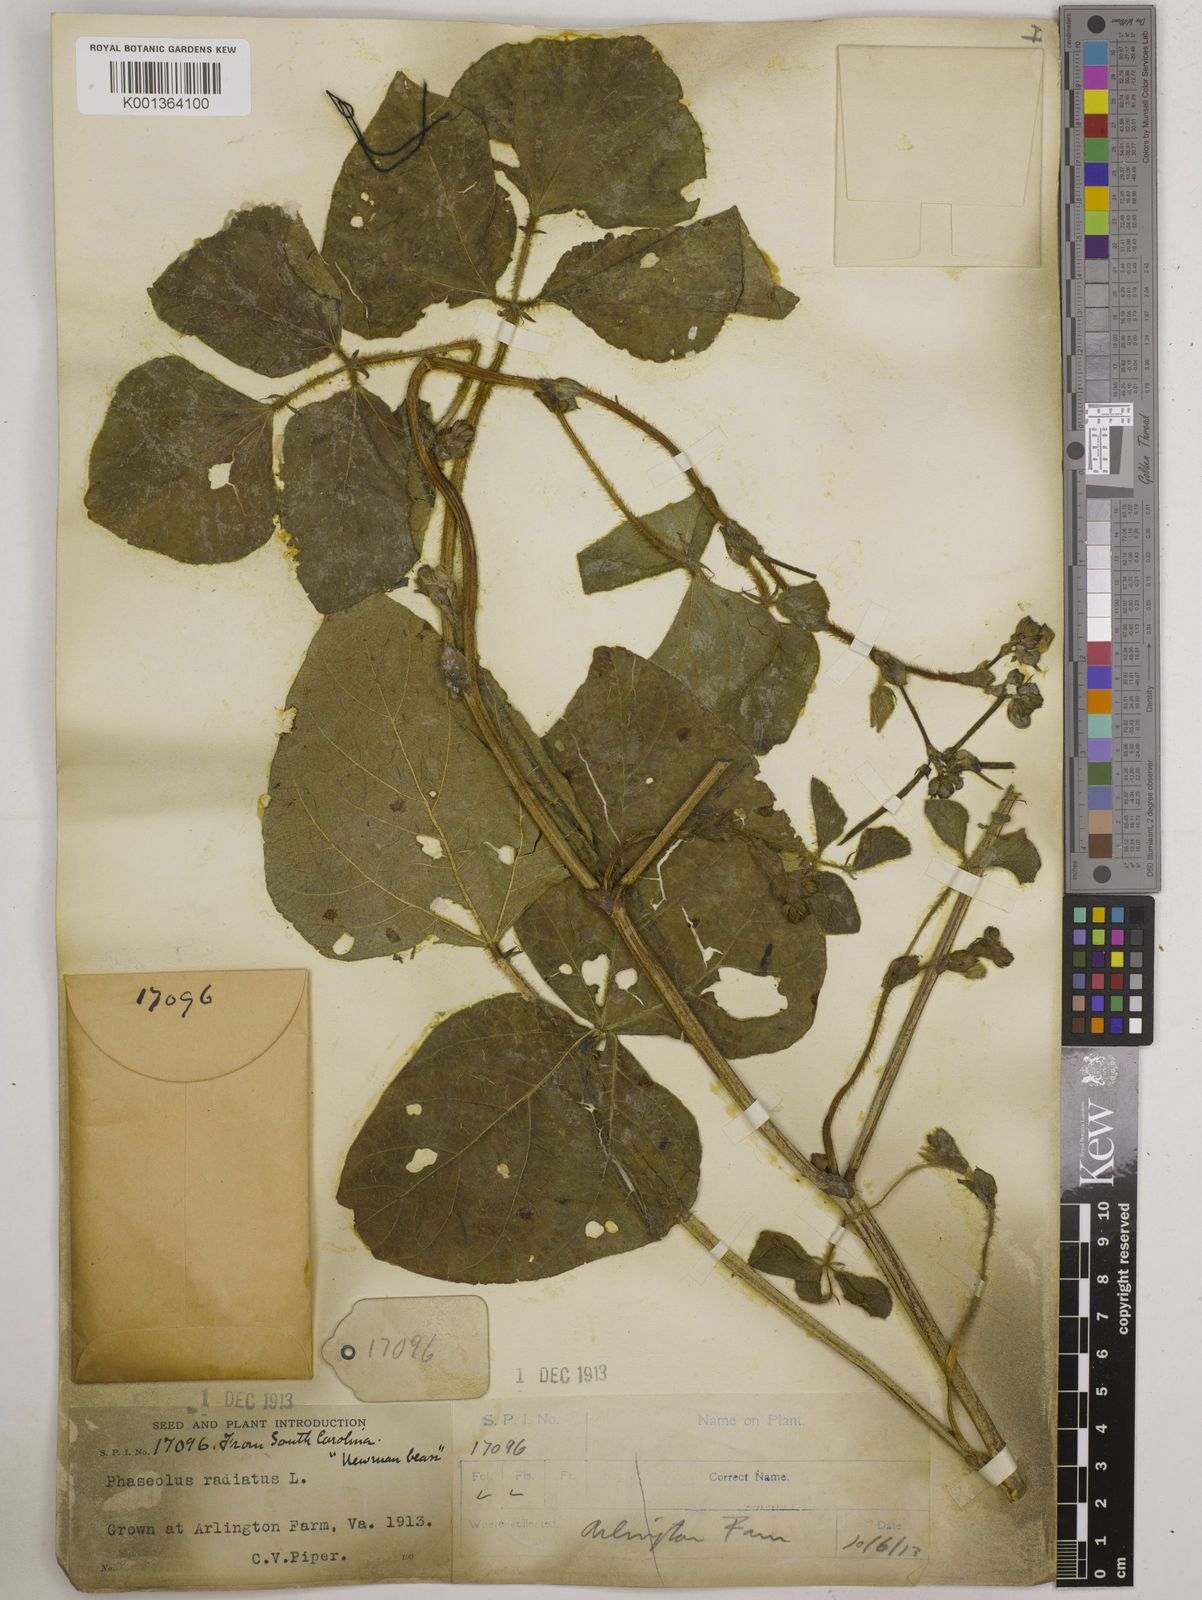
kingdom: Plantae
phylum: Tracheophyta
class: Magnoliopsida
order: Fabales
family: Fabaceae
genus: Vigna
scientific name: Vigna radiata
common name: Mung-bean
